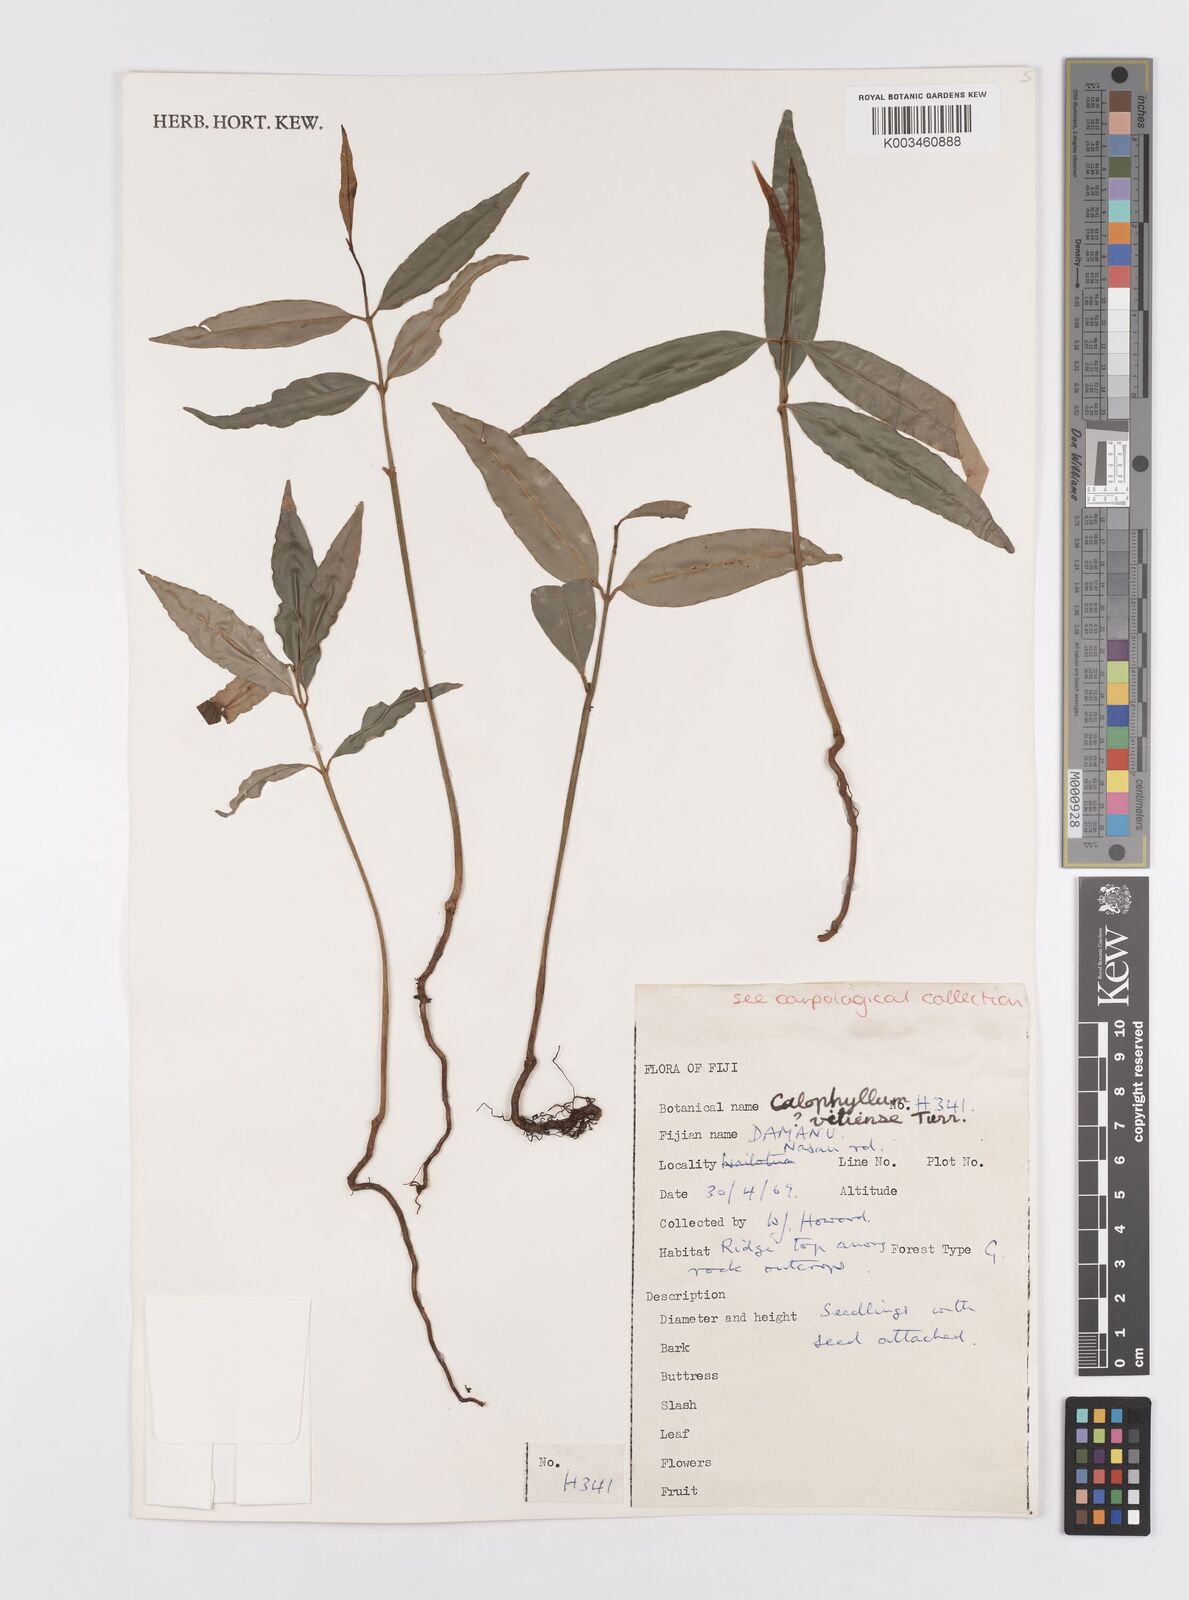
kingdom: Plantae
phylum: Tracheophyta
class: Magnoliopsida
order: Malpighiales
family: Calophyllaceae
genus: Calophyllum
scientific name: Calophyllum vitiense
